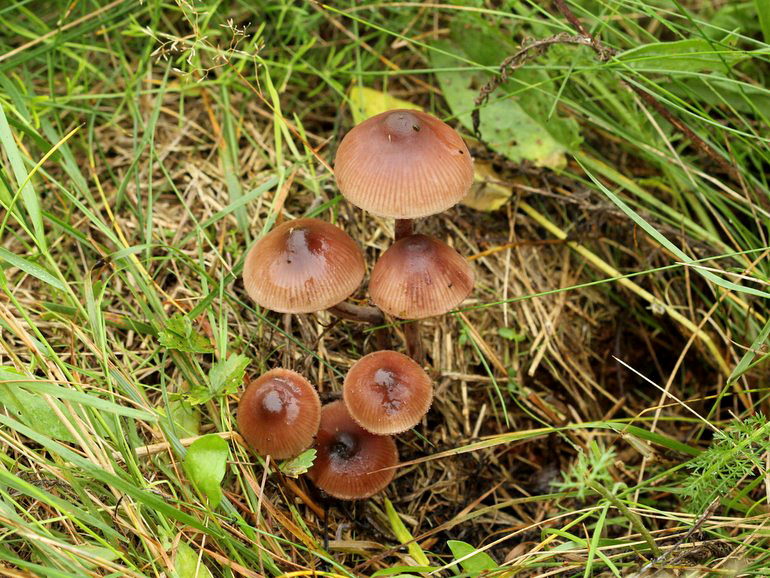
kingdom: Fungi
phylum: Basidiomycota
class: Agaricomycetes
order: Agaricales
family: Mycenaceae
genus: Mycena
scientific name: Mycena haematopus
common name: blødende huesvamp
